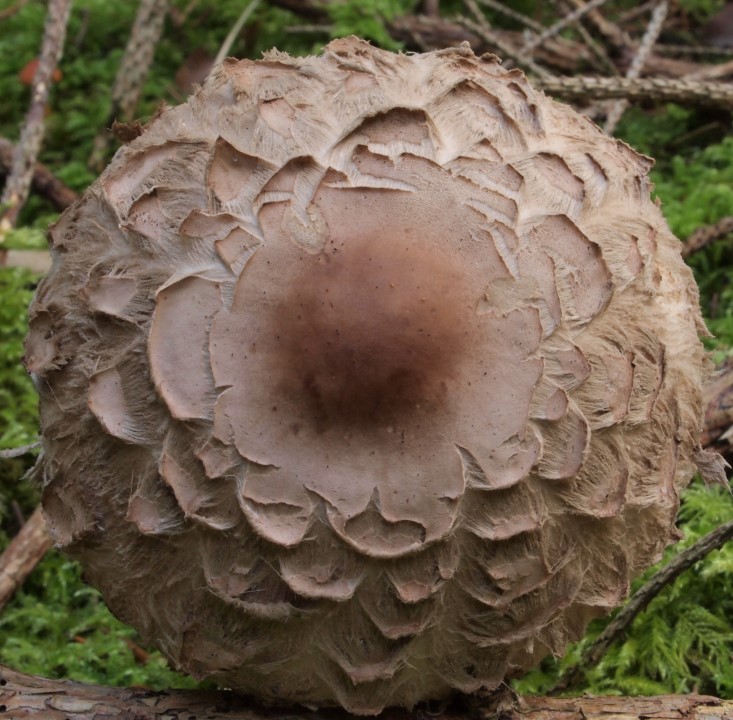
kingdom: Fungi
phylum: Basidiomycota
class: Agaricomycetes
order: Agaricales
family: Agaricaceae
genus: Chlorophyllum
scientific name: Chlorophyllum olivieri
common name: almindelig rabarberhat
